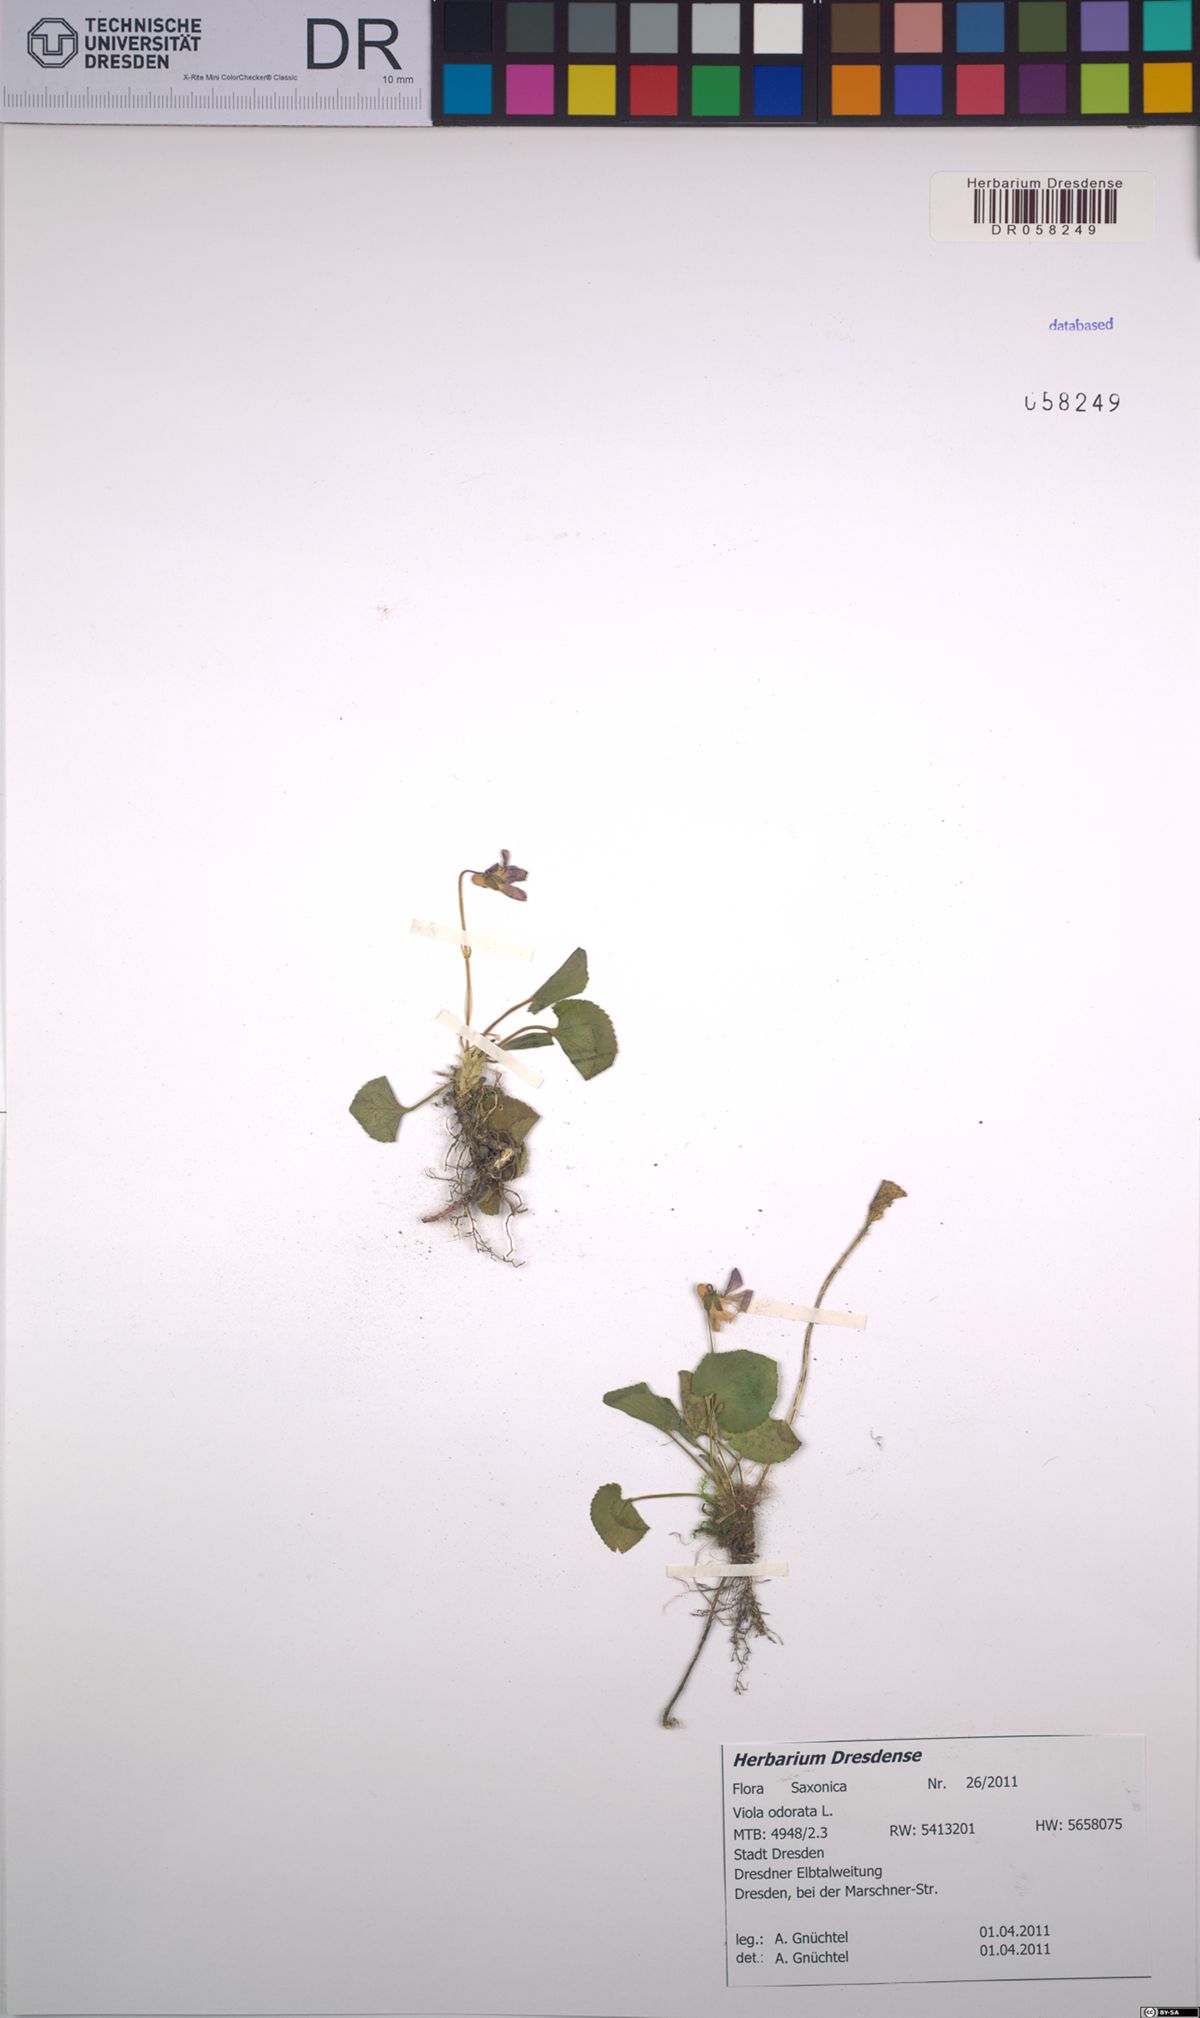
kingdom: Plantae
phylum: Tracheophyta
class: Magnoliopsida
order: Malpighiales
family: Violaceae
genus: Viola
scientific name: Viola odorata
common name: Sweet violet
